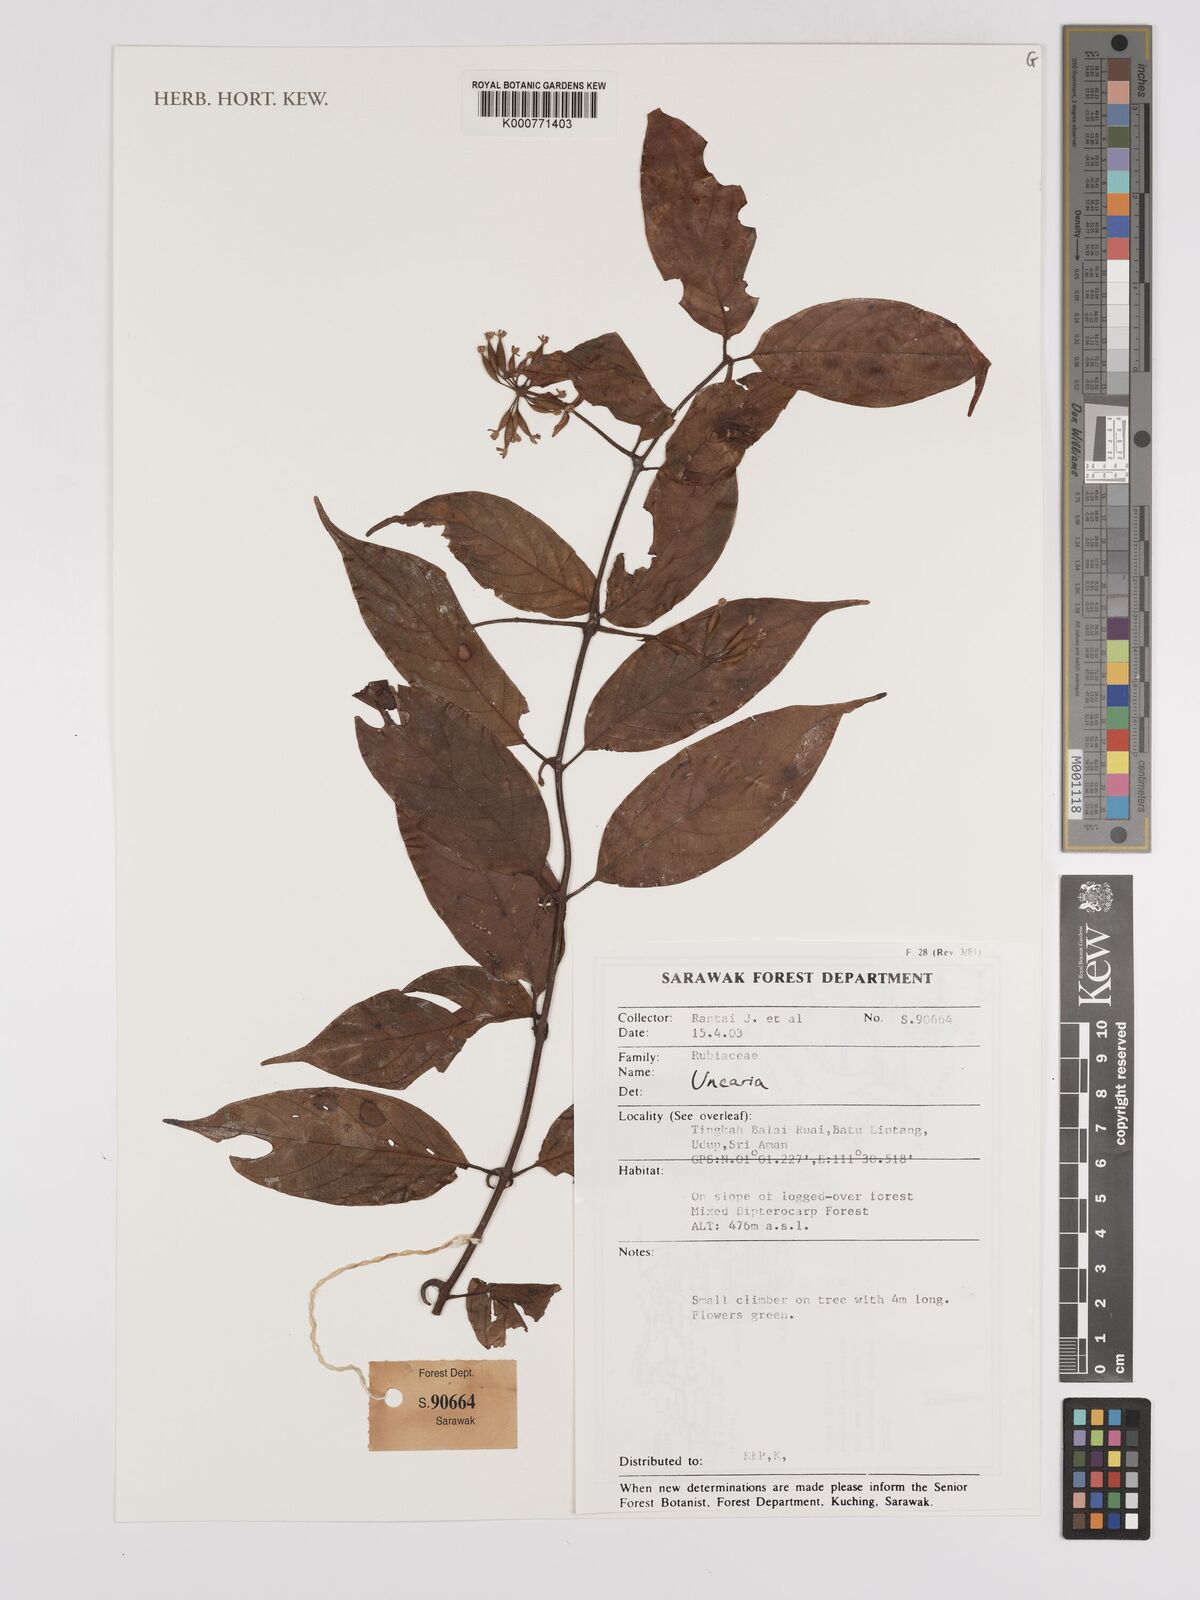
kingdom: Plantae
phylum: Tracheophyta
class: Magnoliopsida
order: Gentianales
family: Rubiaceae
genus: Uncaria
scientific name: Uncaria
